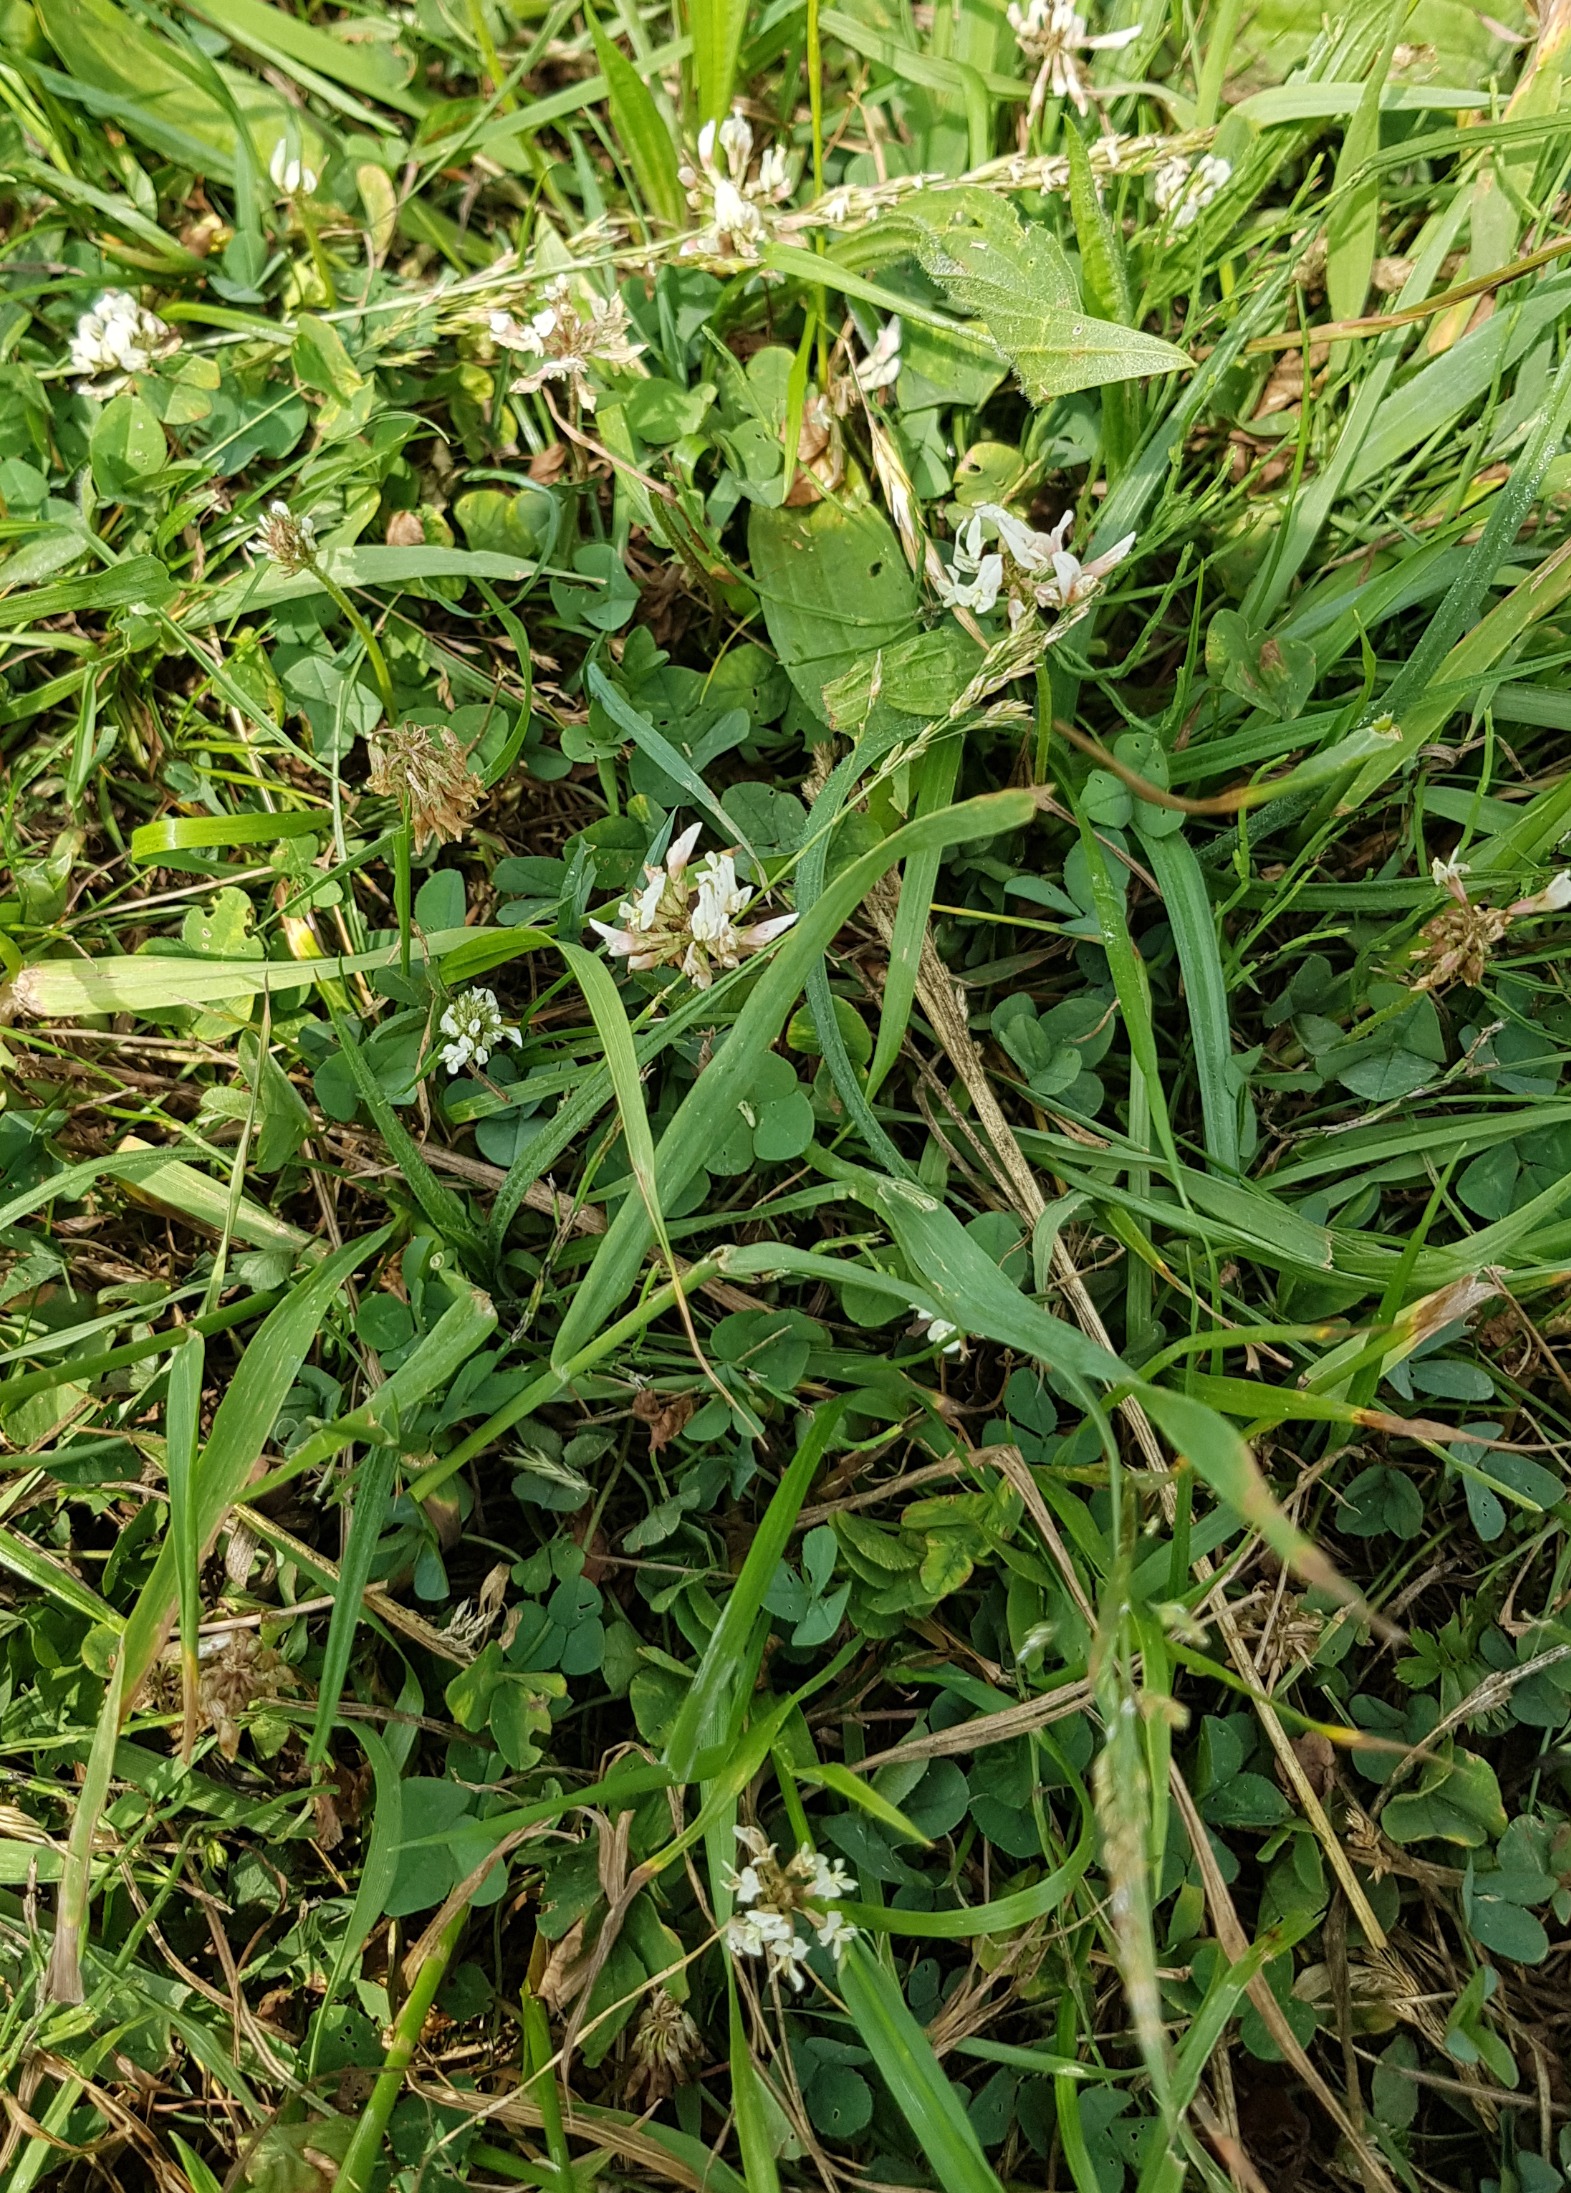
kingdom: Plantae
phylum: Tracheophyta
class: Magnoliopsida
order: Fabales
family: Fabaceae
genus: Trifolium
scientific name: Trifolium repens
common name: Hvid-kløver
